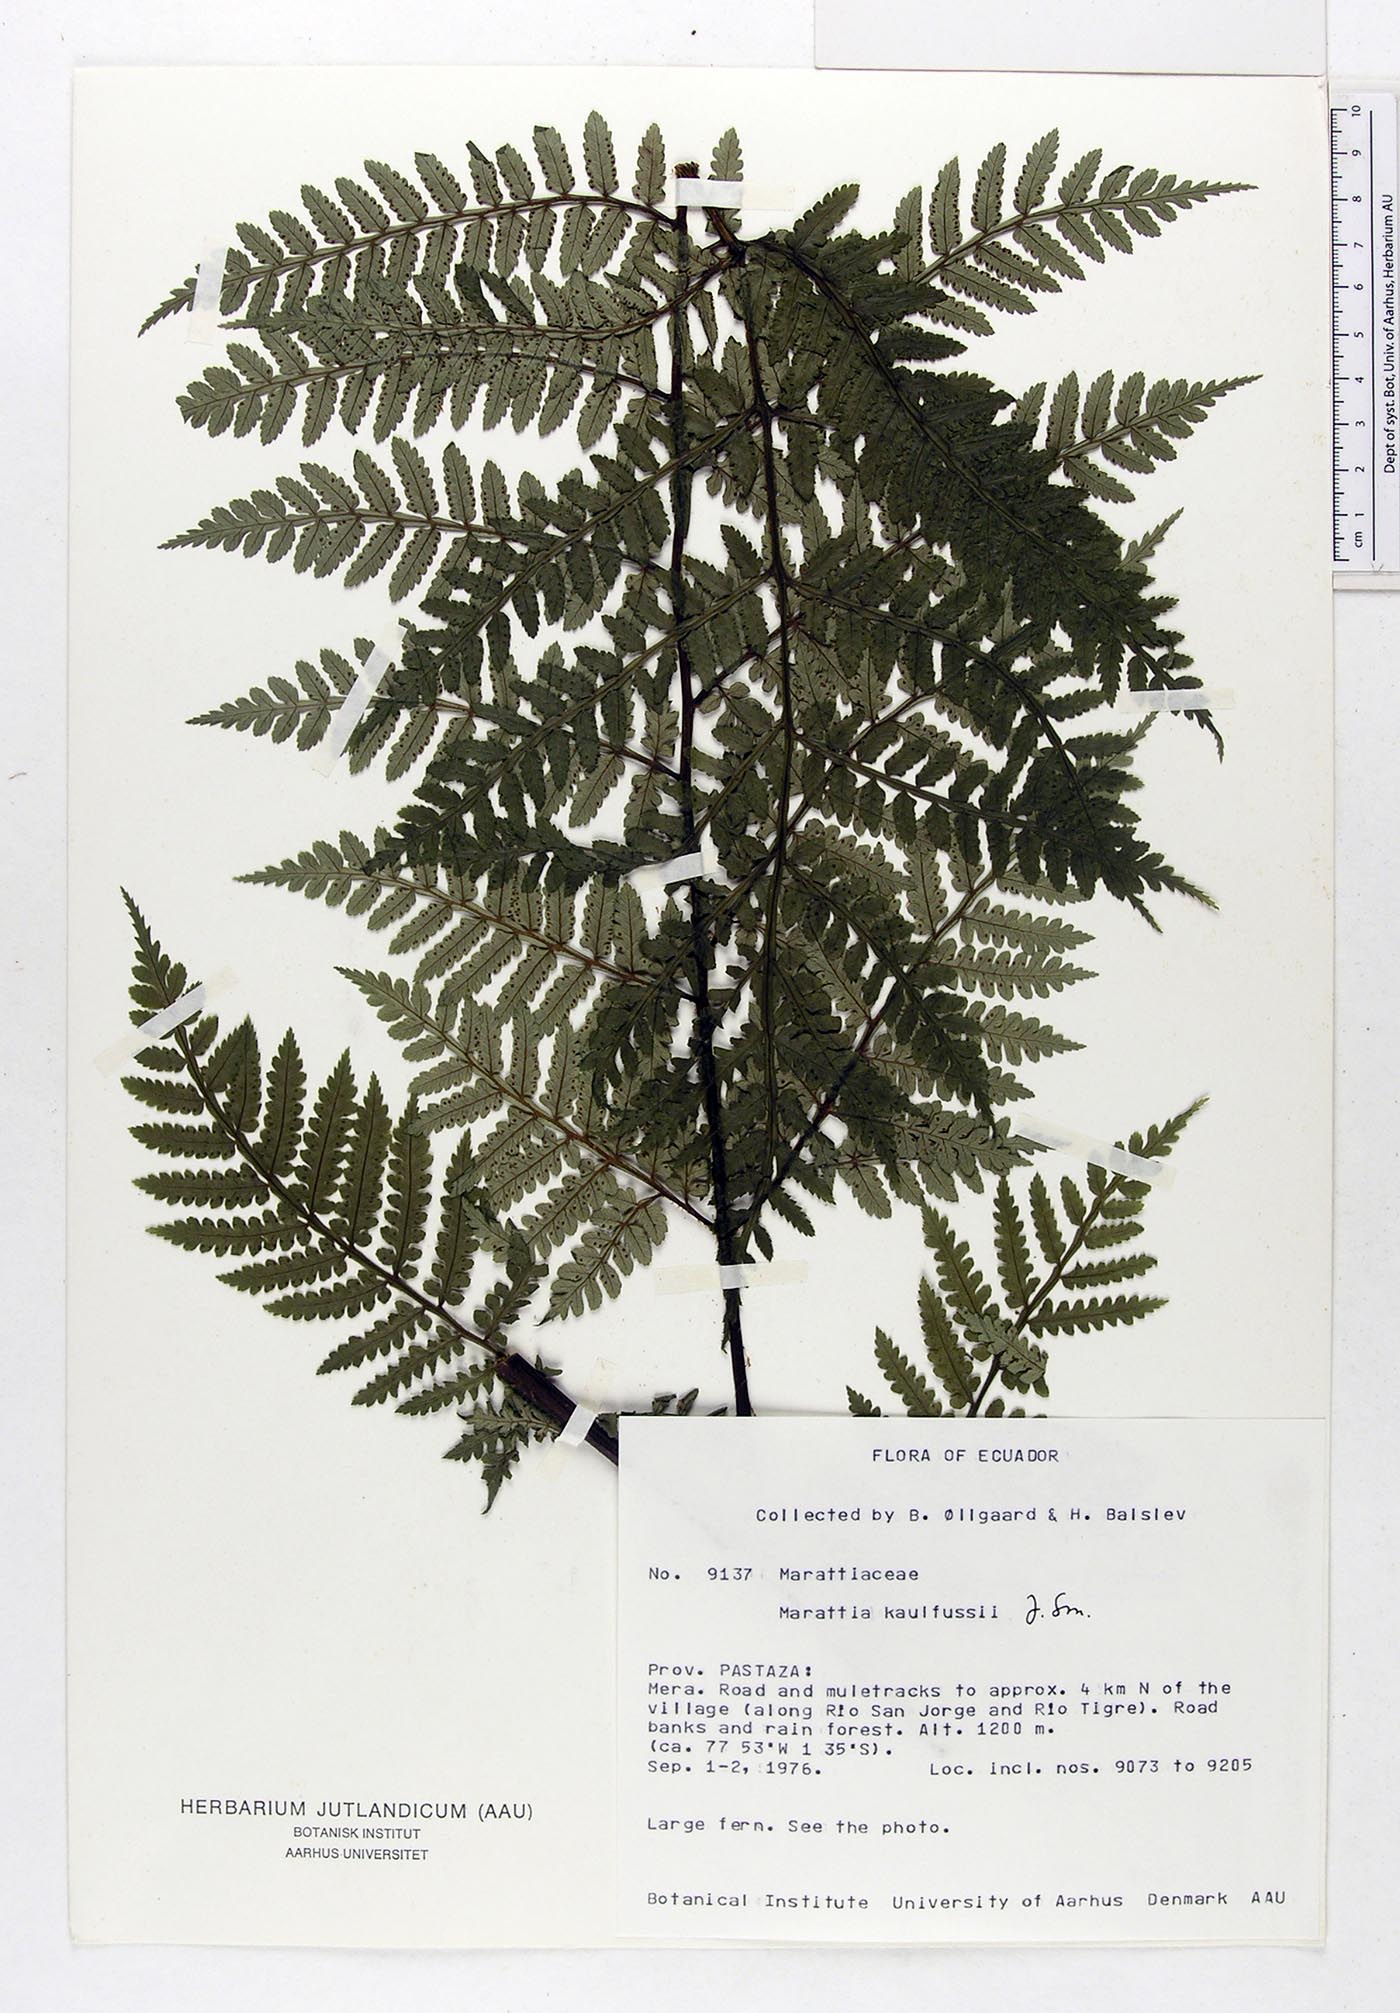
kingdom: Plantae
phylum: Tracheophyta
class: Polypodiopsida
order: Marattiales
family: Marattiaceae
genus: Eupodium
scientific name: Eupodium kaulfussii
